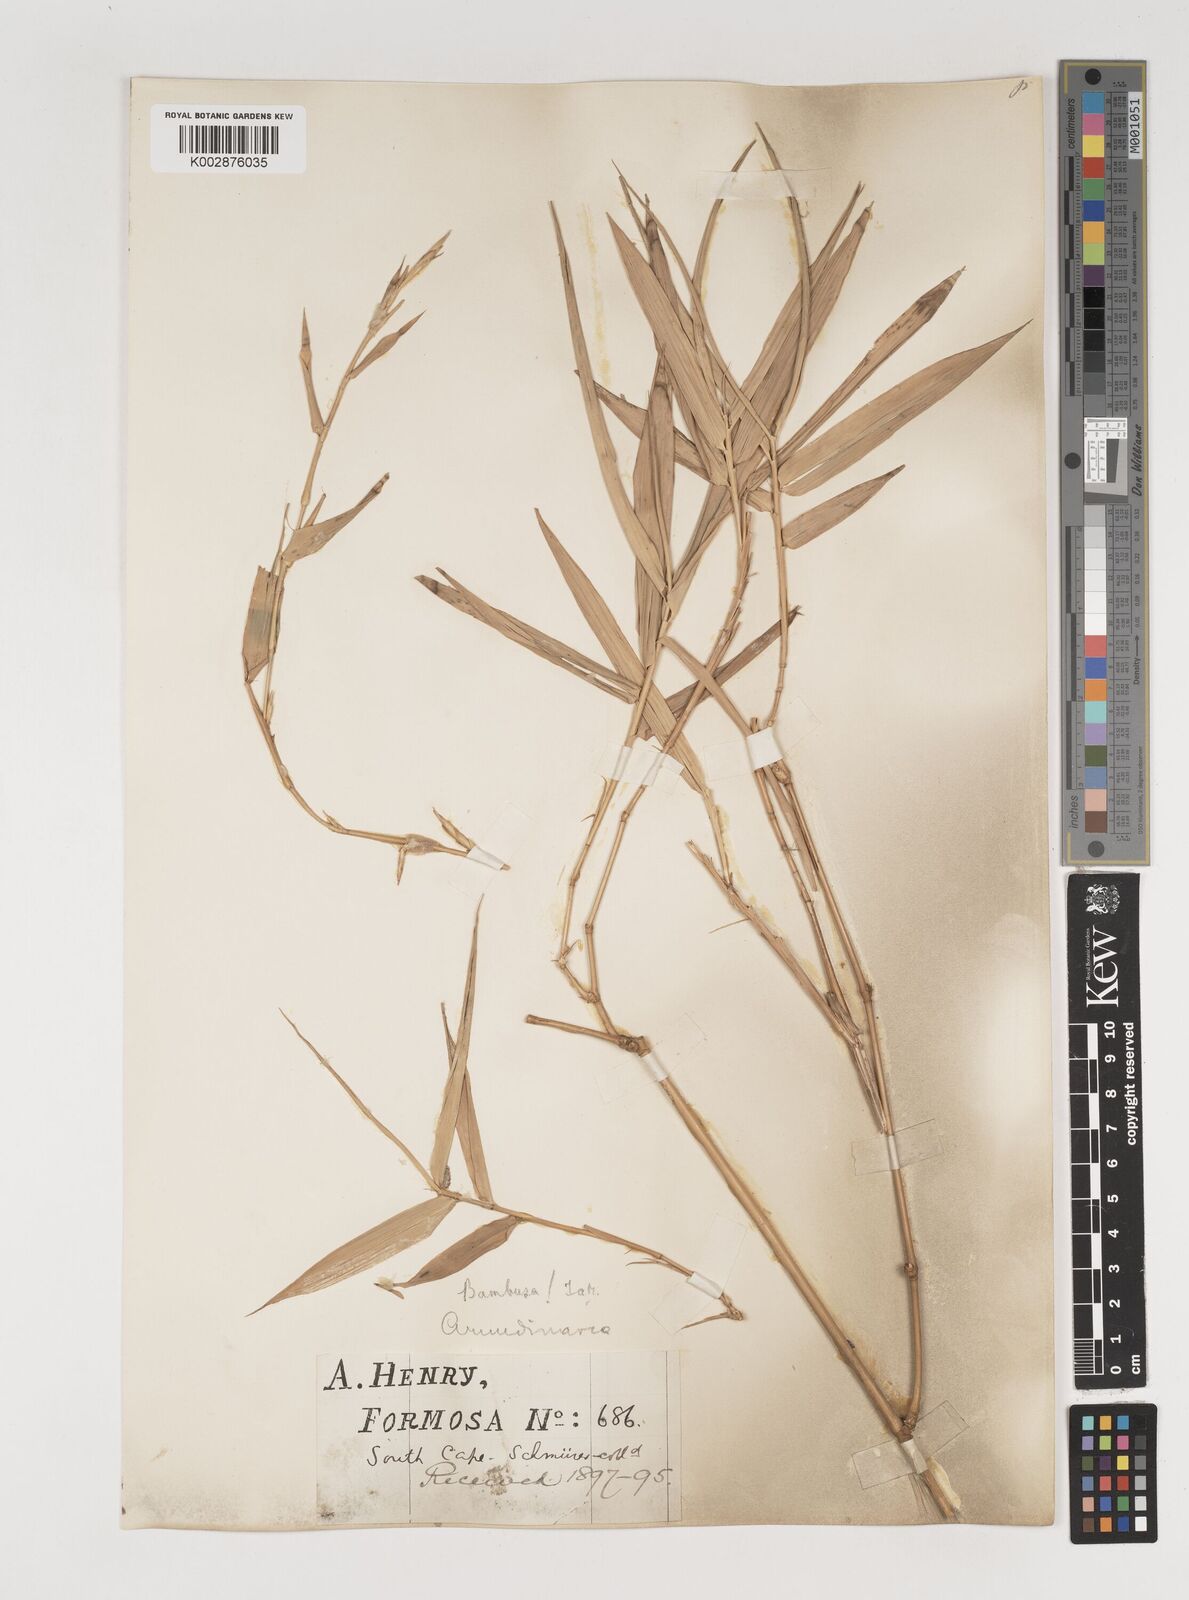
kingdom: Plantae
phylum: Tracheophyta
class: Liliopsida
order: Poales
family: Poaceae
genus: Bambusa
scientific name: Bambusa tuldoides
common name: Verdant bamboo
